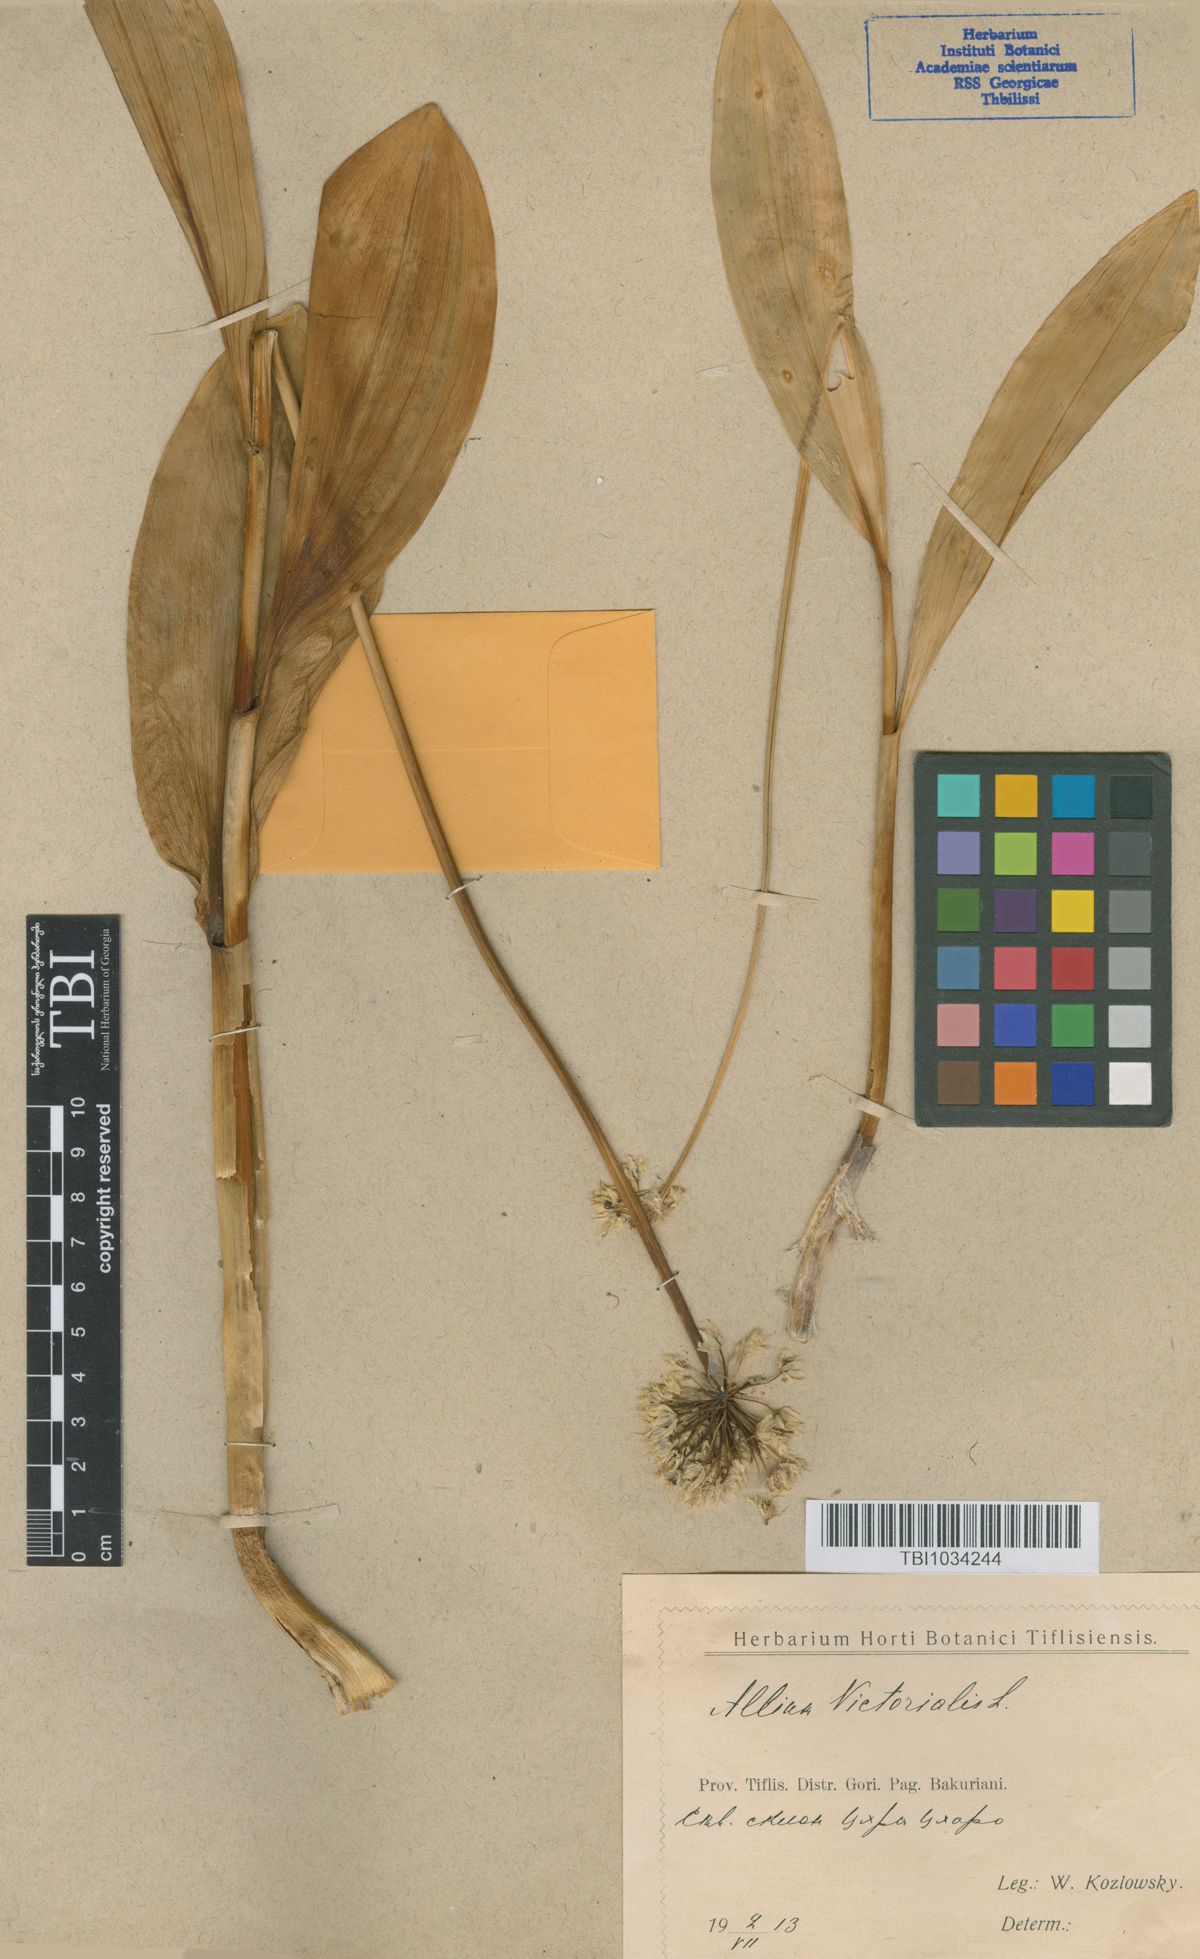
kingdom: Plantae
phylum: Tracheophyta
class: Liliopsida
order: Asparagales
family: Amaryllidaceae
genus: Allium
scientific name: Allium victorialis
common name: Alpine leek
